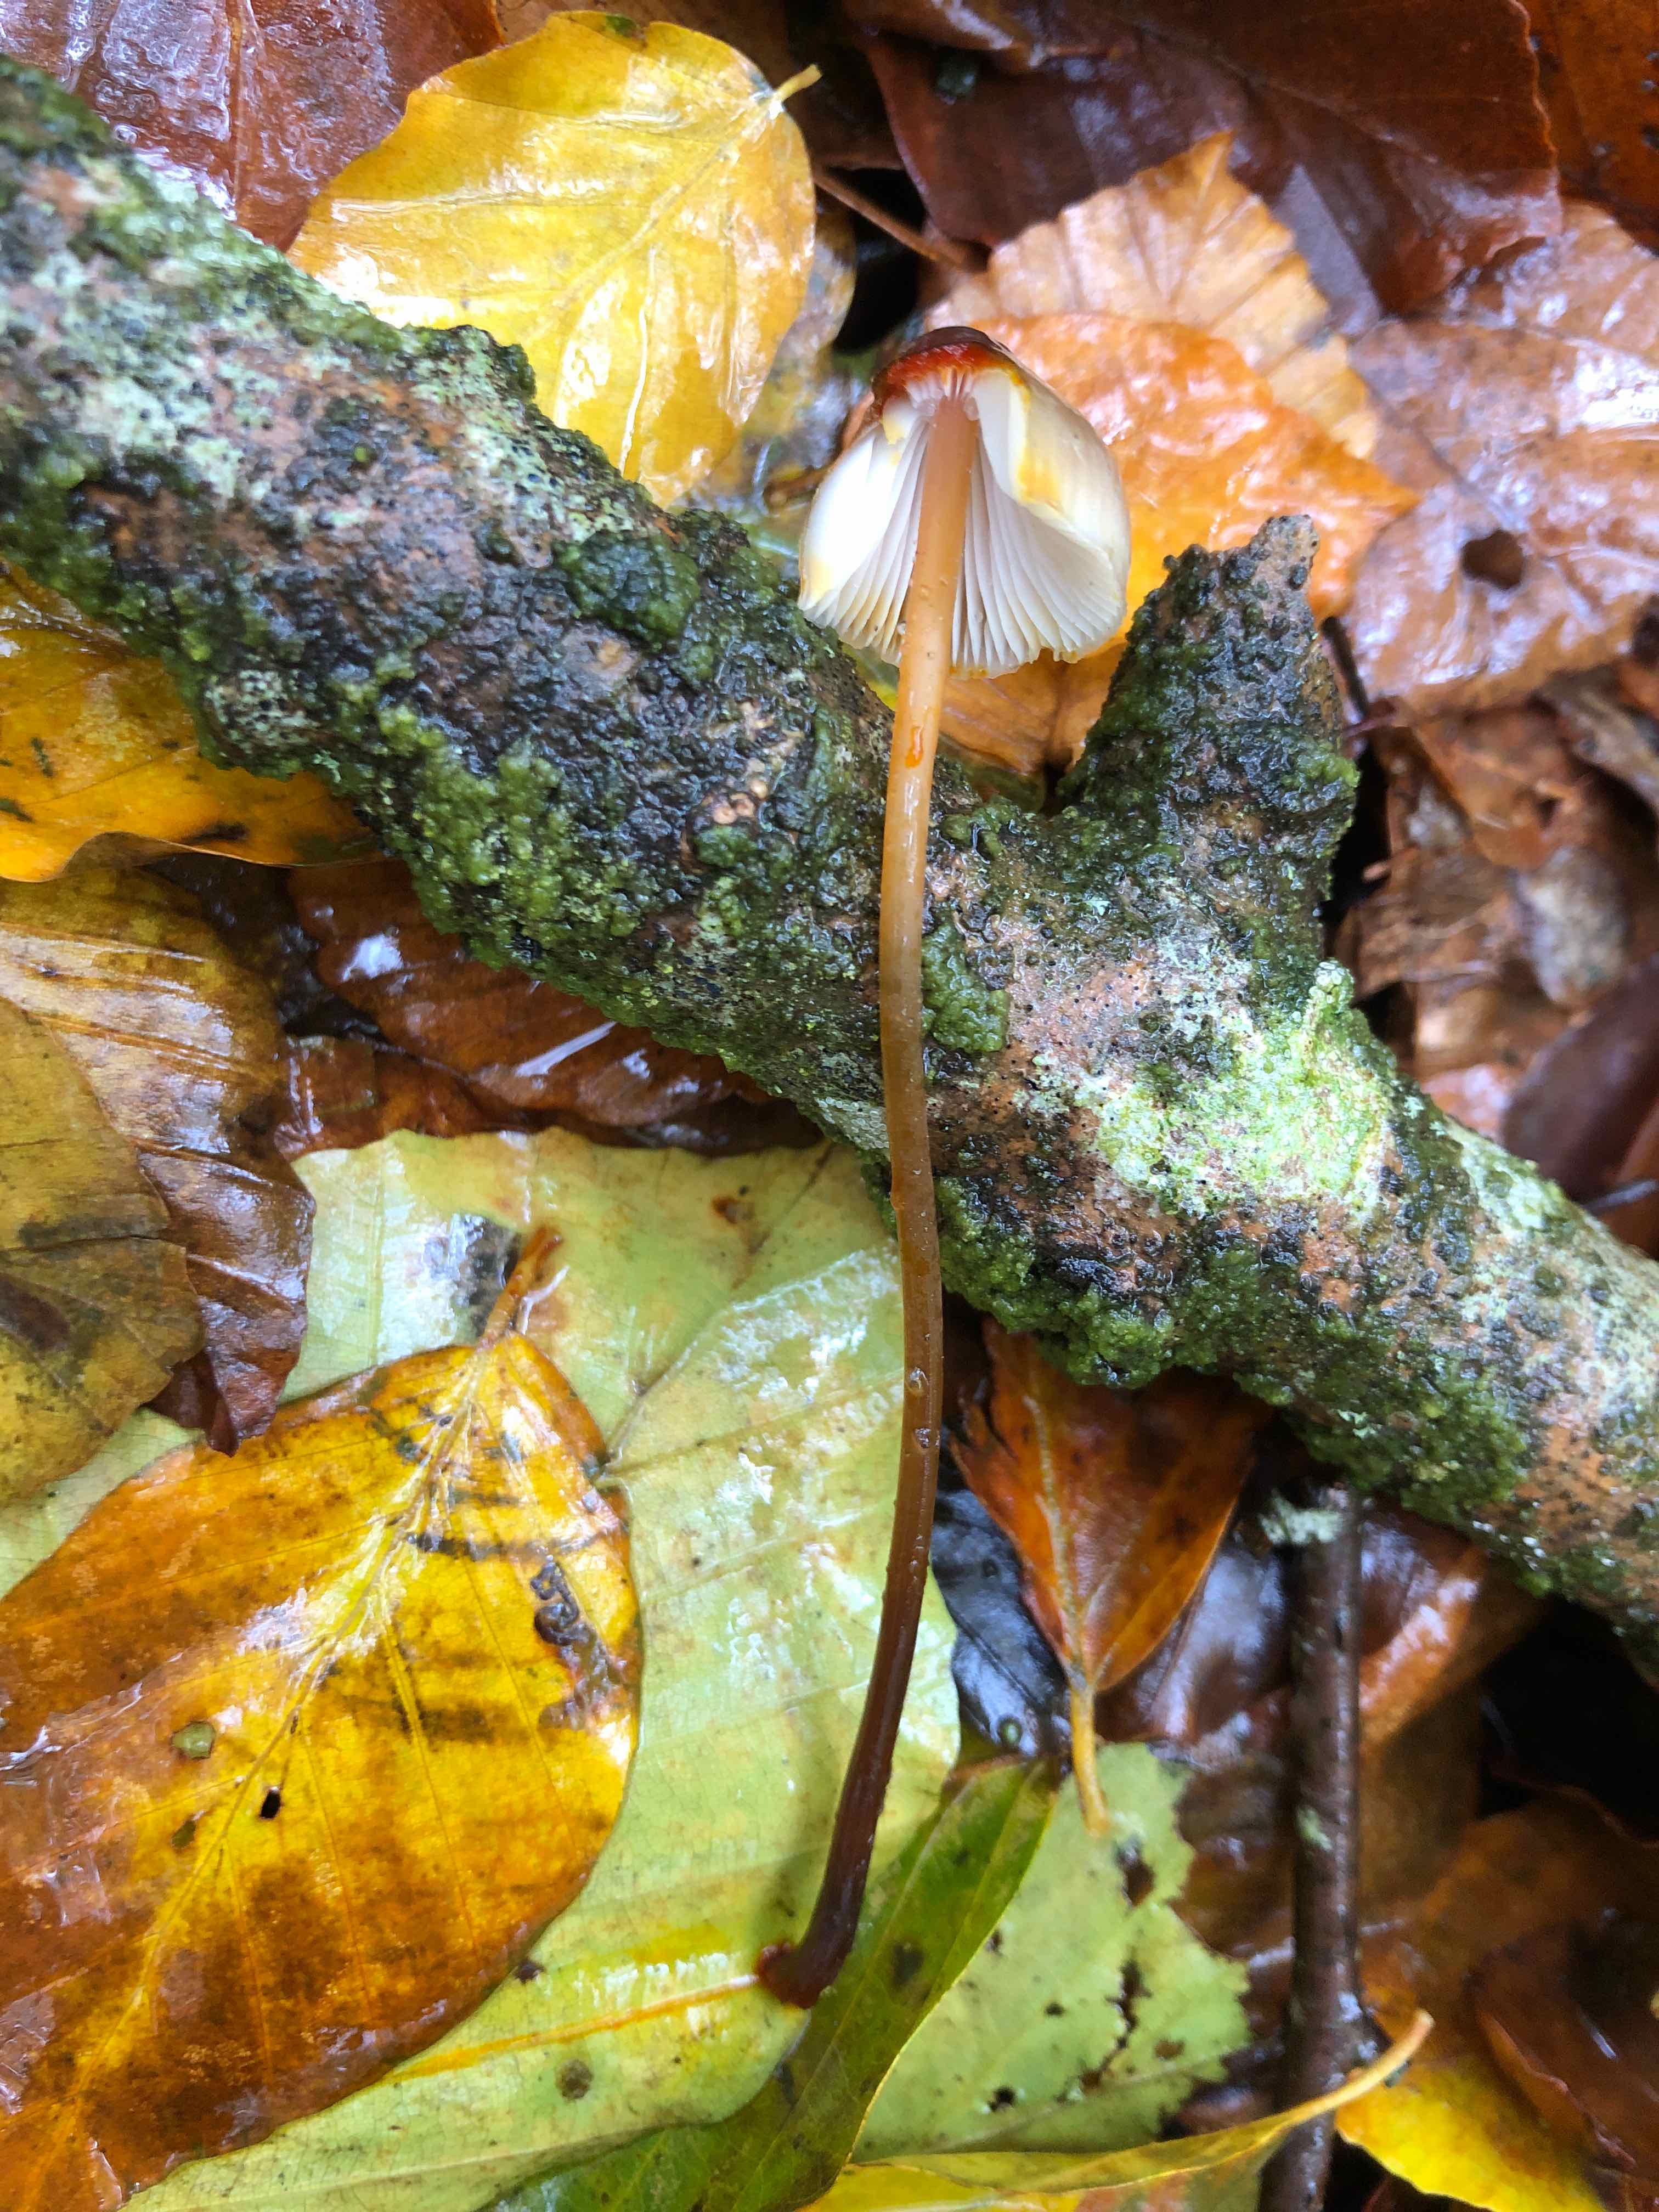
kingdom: Fungi
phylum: Basidiomycota
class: Agaricomycetes
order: Agaricales
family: Mycenaceae
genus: Mycena
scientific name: Mycena crocata
